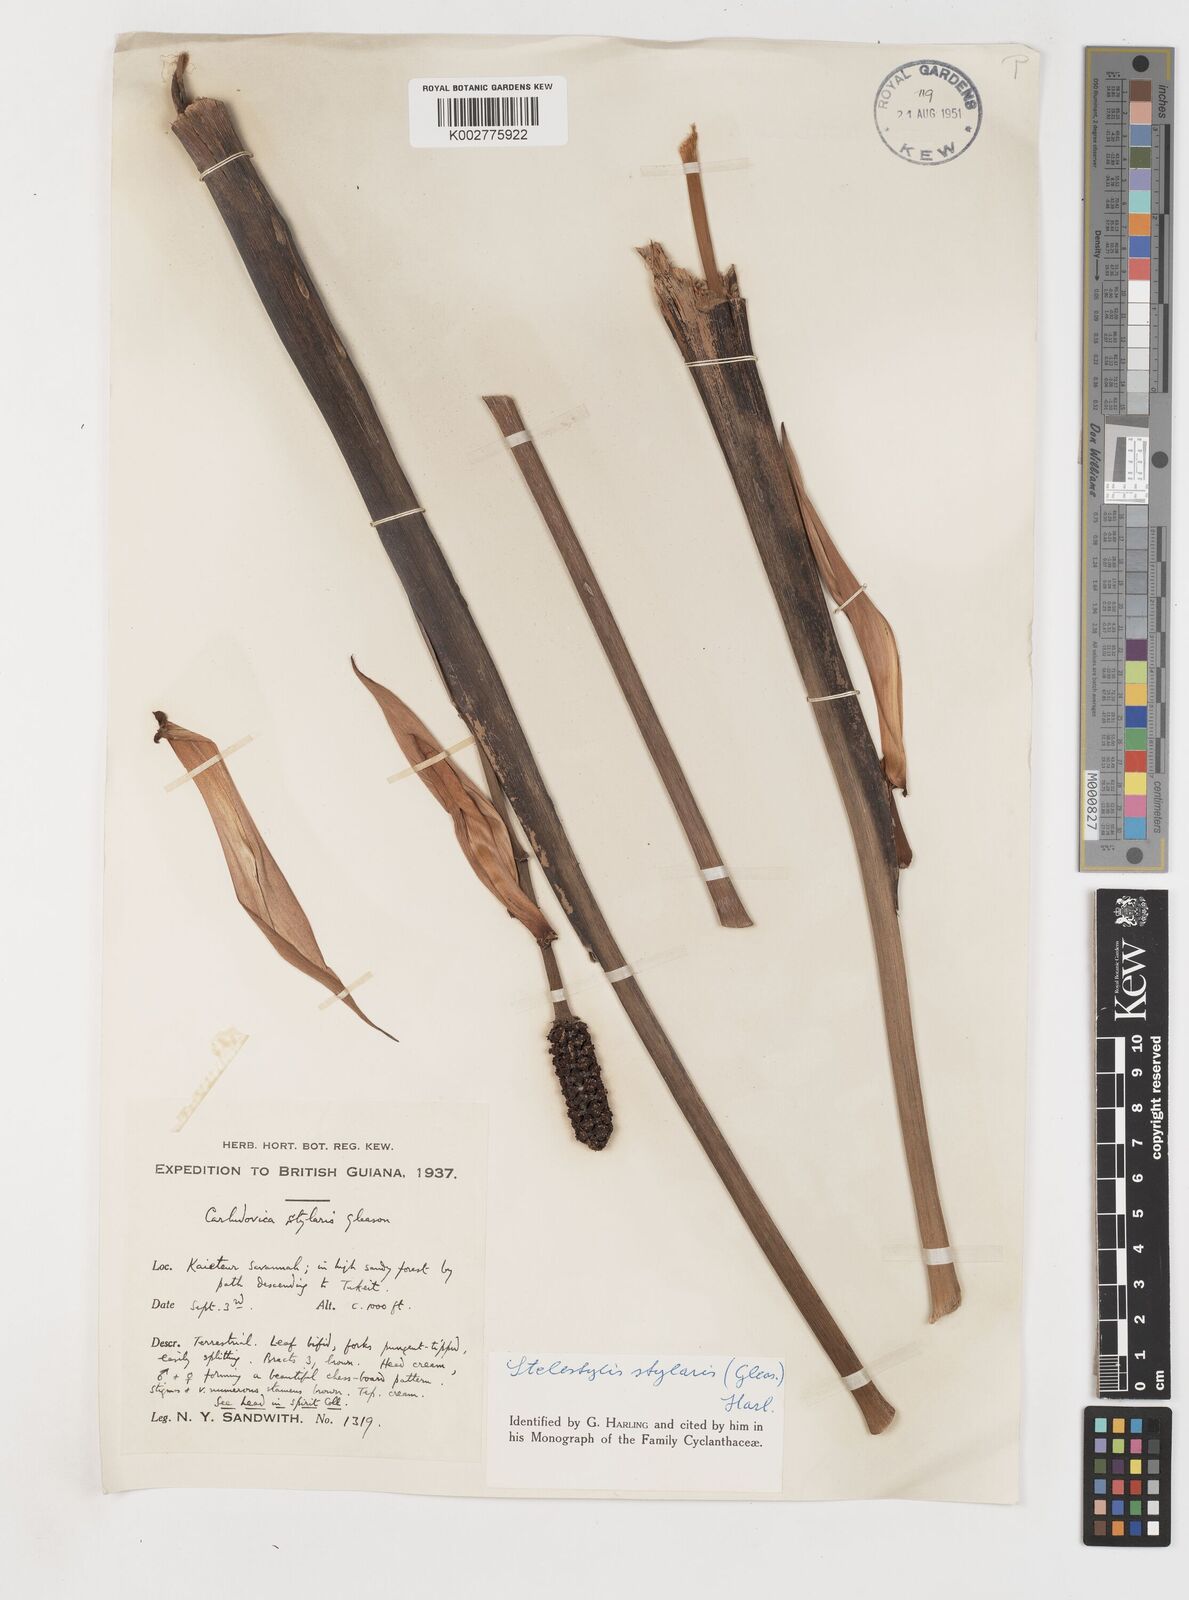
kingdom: Plantae
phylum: Tracheophyta
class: Liliopsida
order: Pandanales
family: Cyclanthaceae
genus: Stelestylis
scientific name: Stelestylis stylaris
